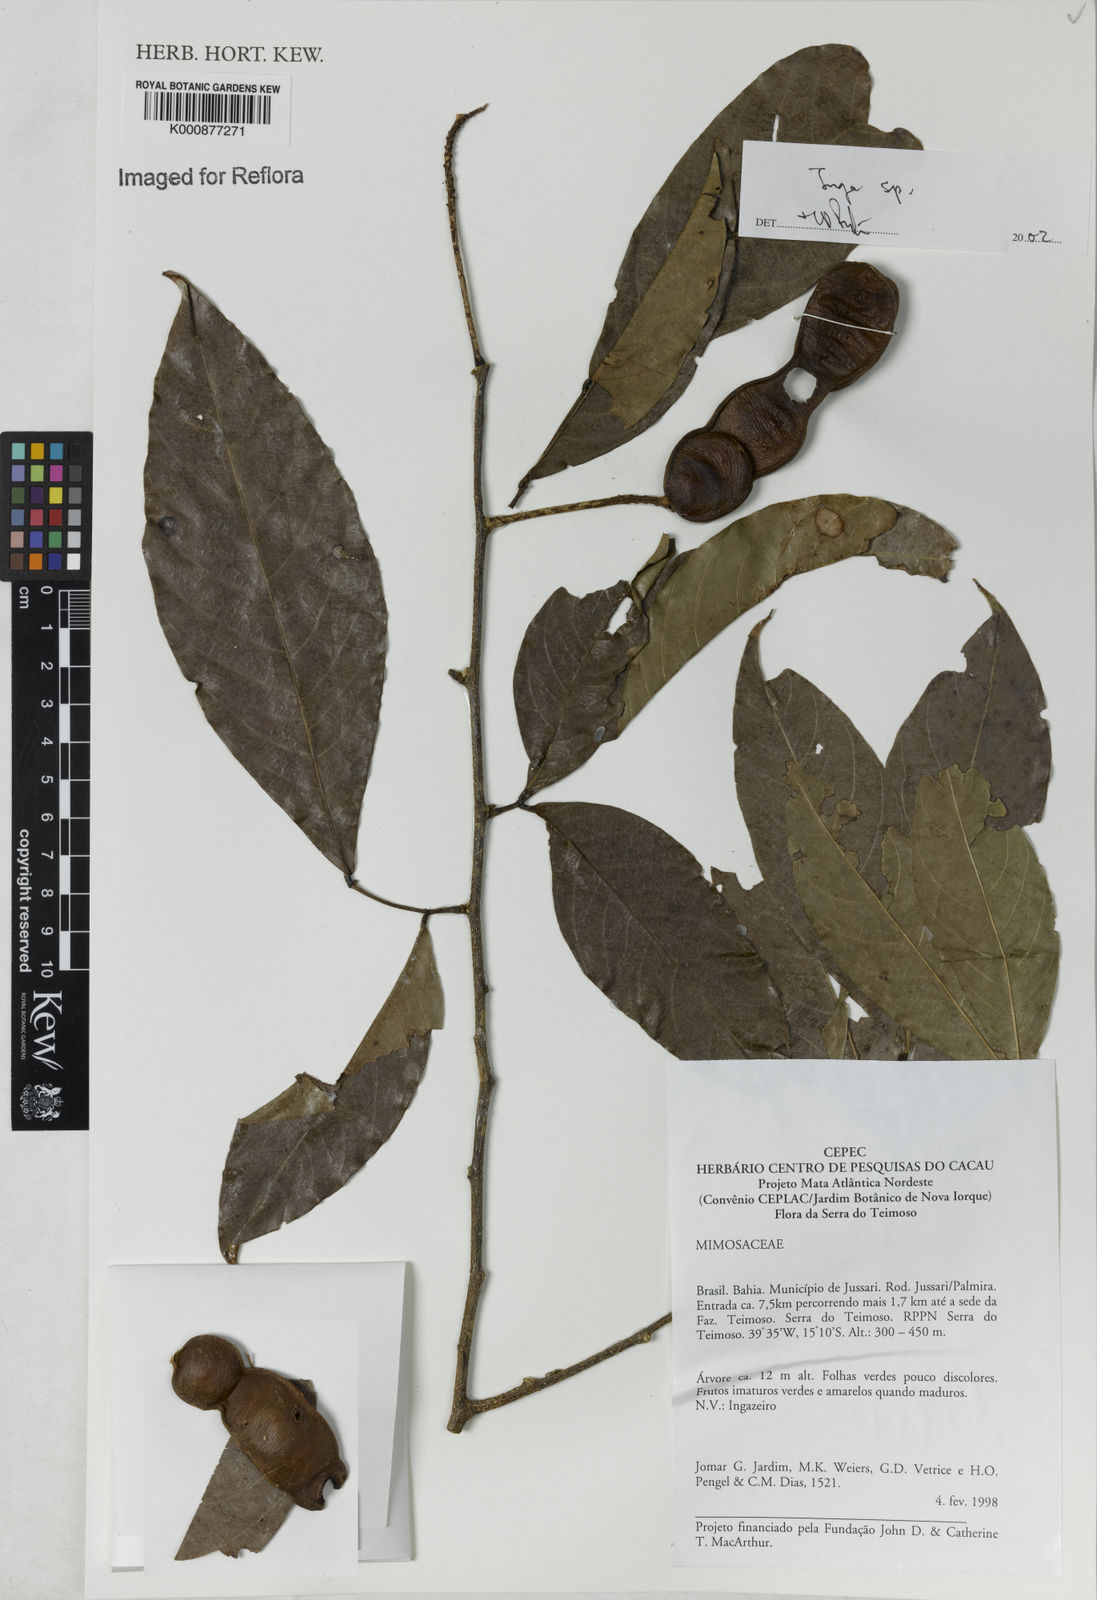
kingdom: Plantae
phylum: Tracheophyta
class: Magnoliopsida
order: Fabales
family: Fabaceae
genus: Inga
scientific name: Inga
